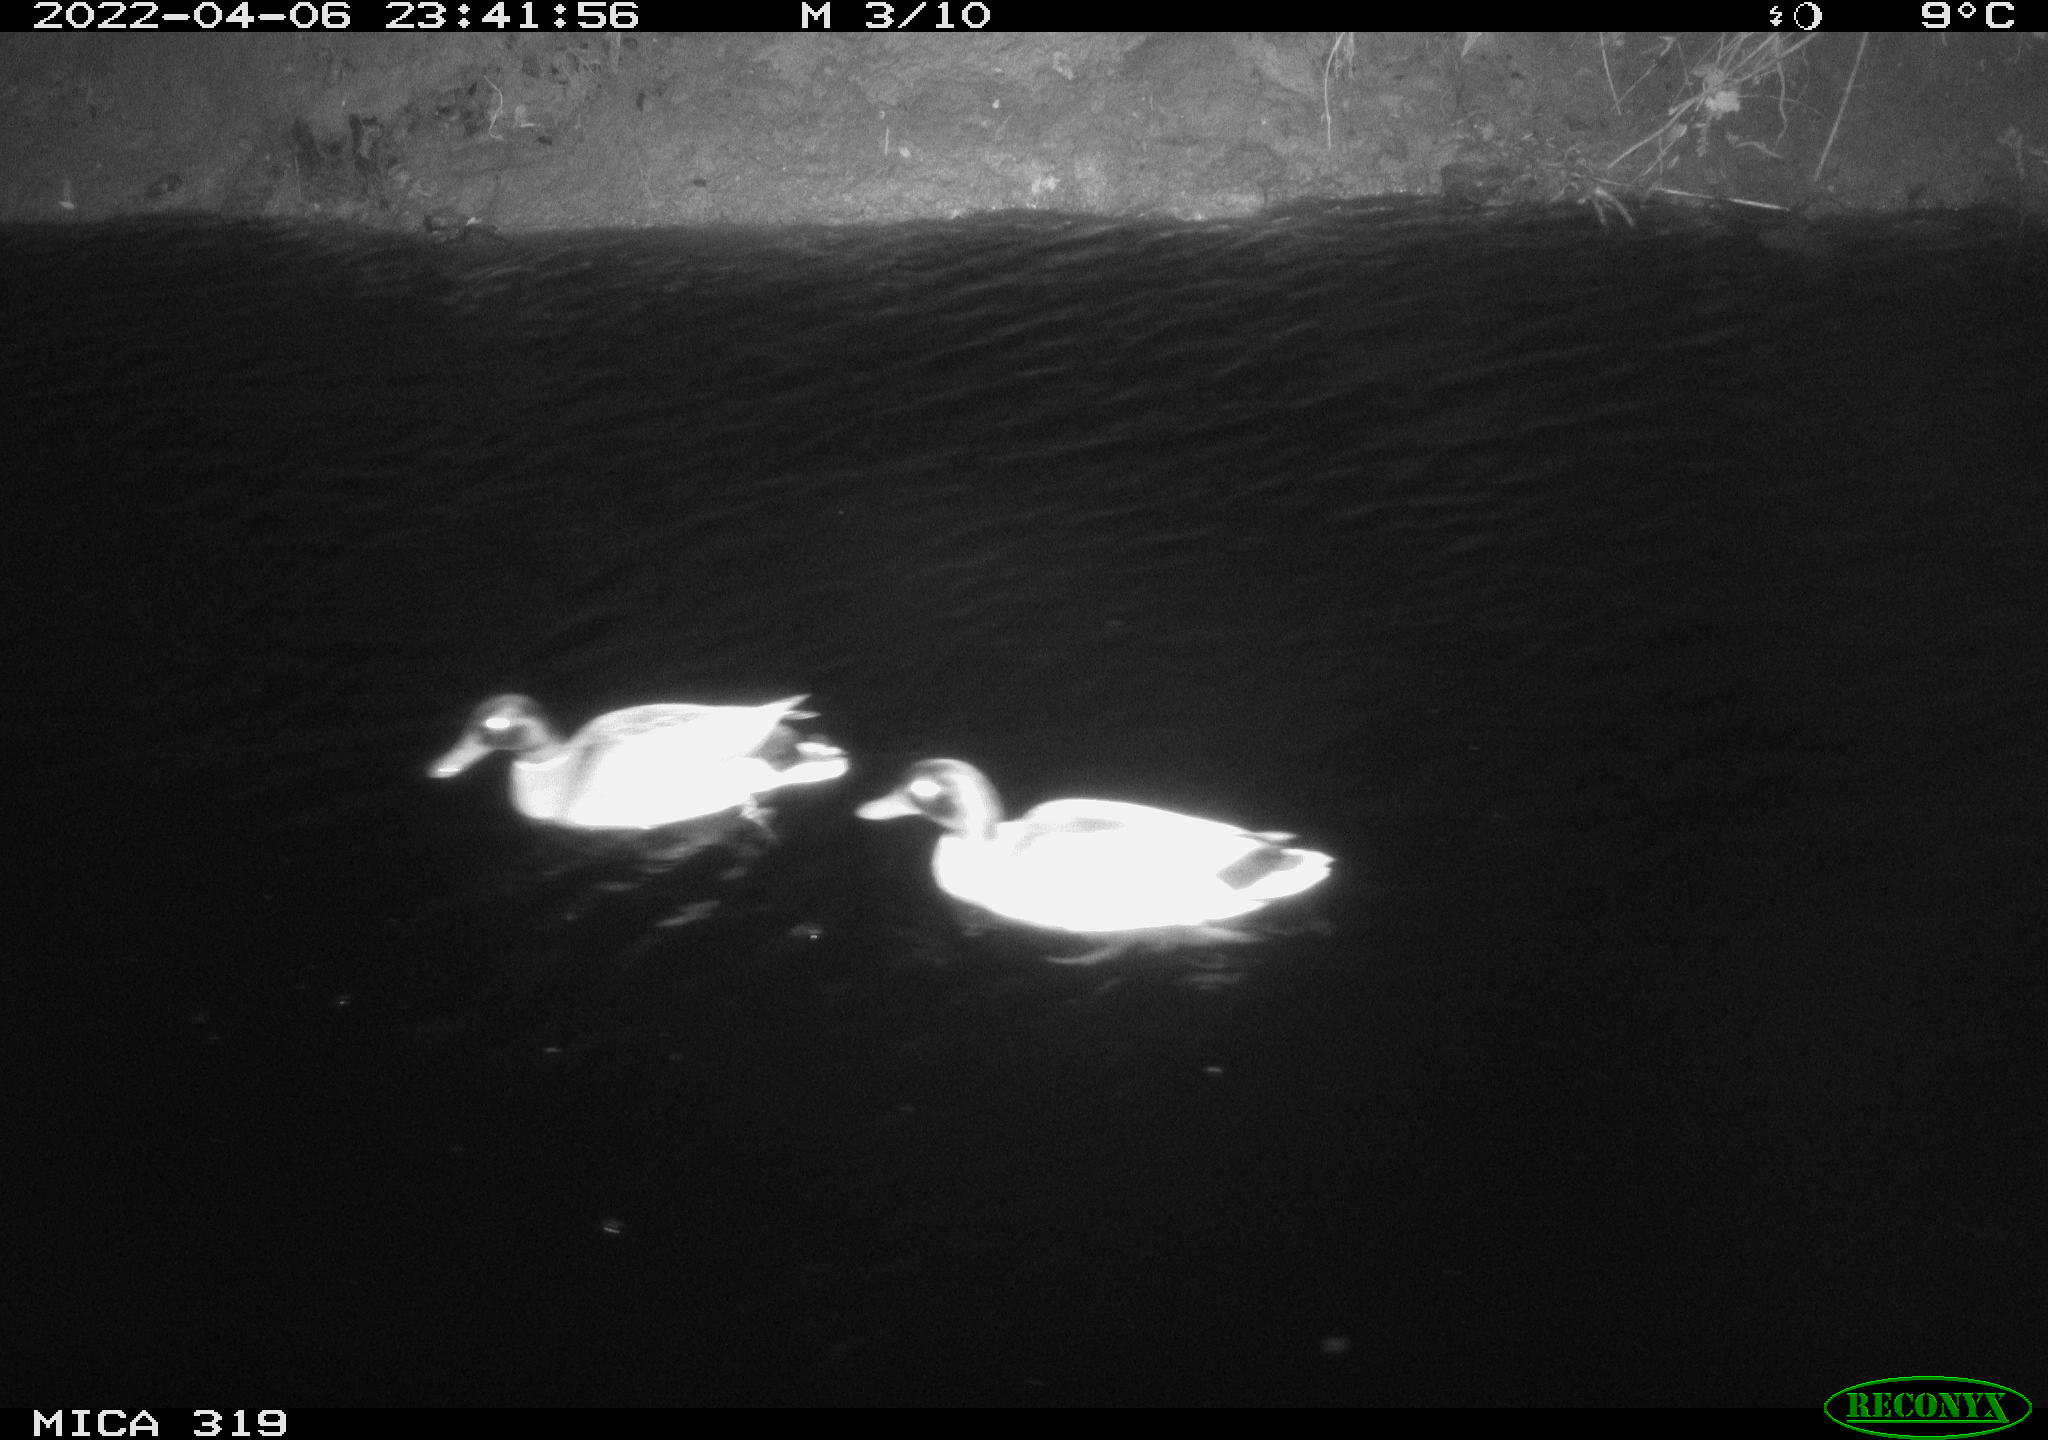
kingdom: Animalia
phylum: Chordata
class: Aves
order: Anseriformes
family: Anatidae
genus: Anas
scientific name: Anas platyrhynchos
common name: Mallard
